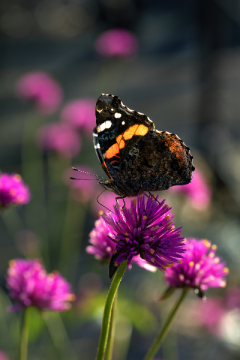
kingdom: Animalia
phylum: Arthropoda
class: Insecta
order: Lepidoptera
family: Nymphalidae
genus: Vanessa
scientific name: Vanessa atalanta
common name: Red Admiral
